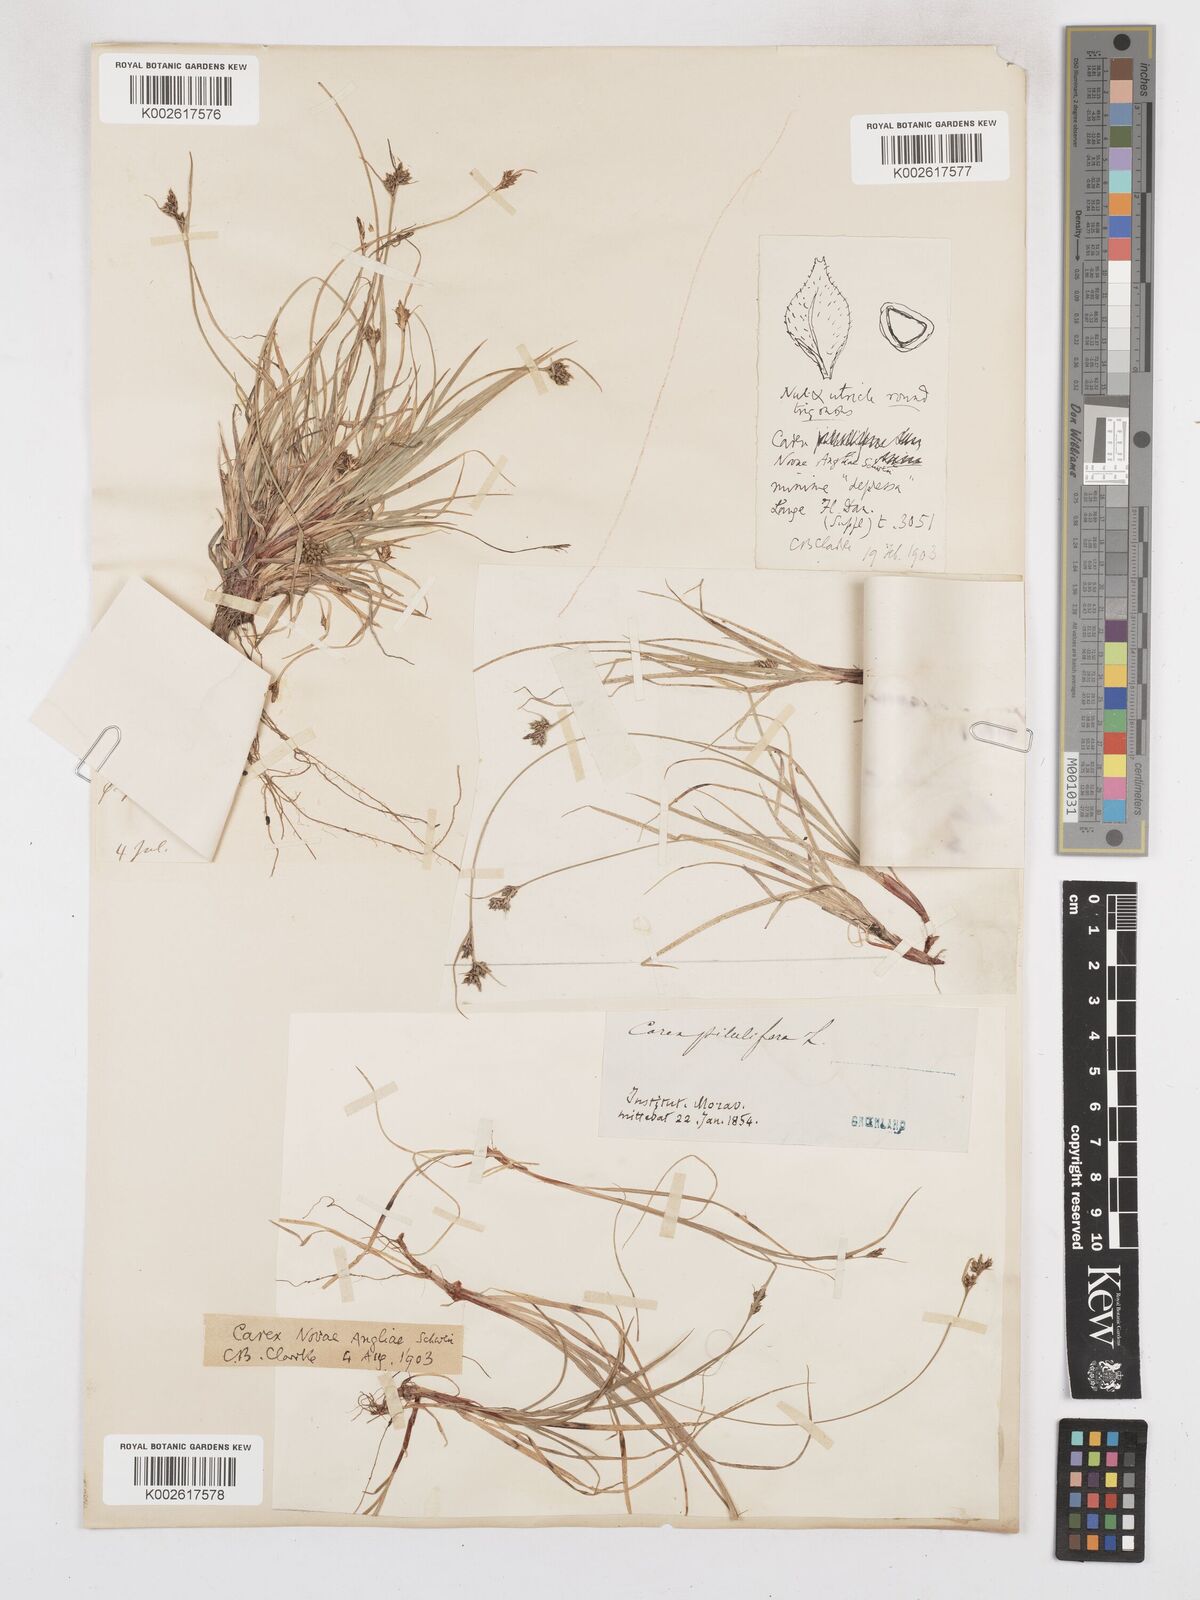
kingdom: Plantae
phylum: Tracheophyta
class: Liliopsida
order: Poales
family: Cyperaceae
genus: Carex
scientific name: Carex deflexa
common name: Bent northern sedge
